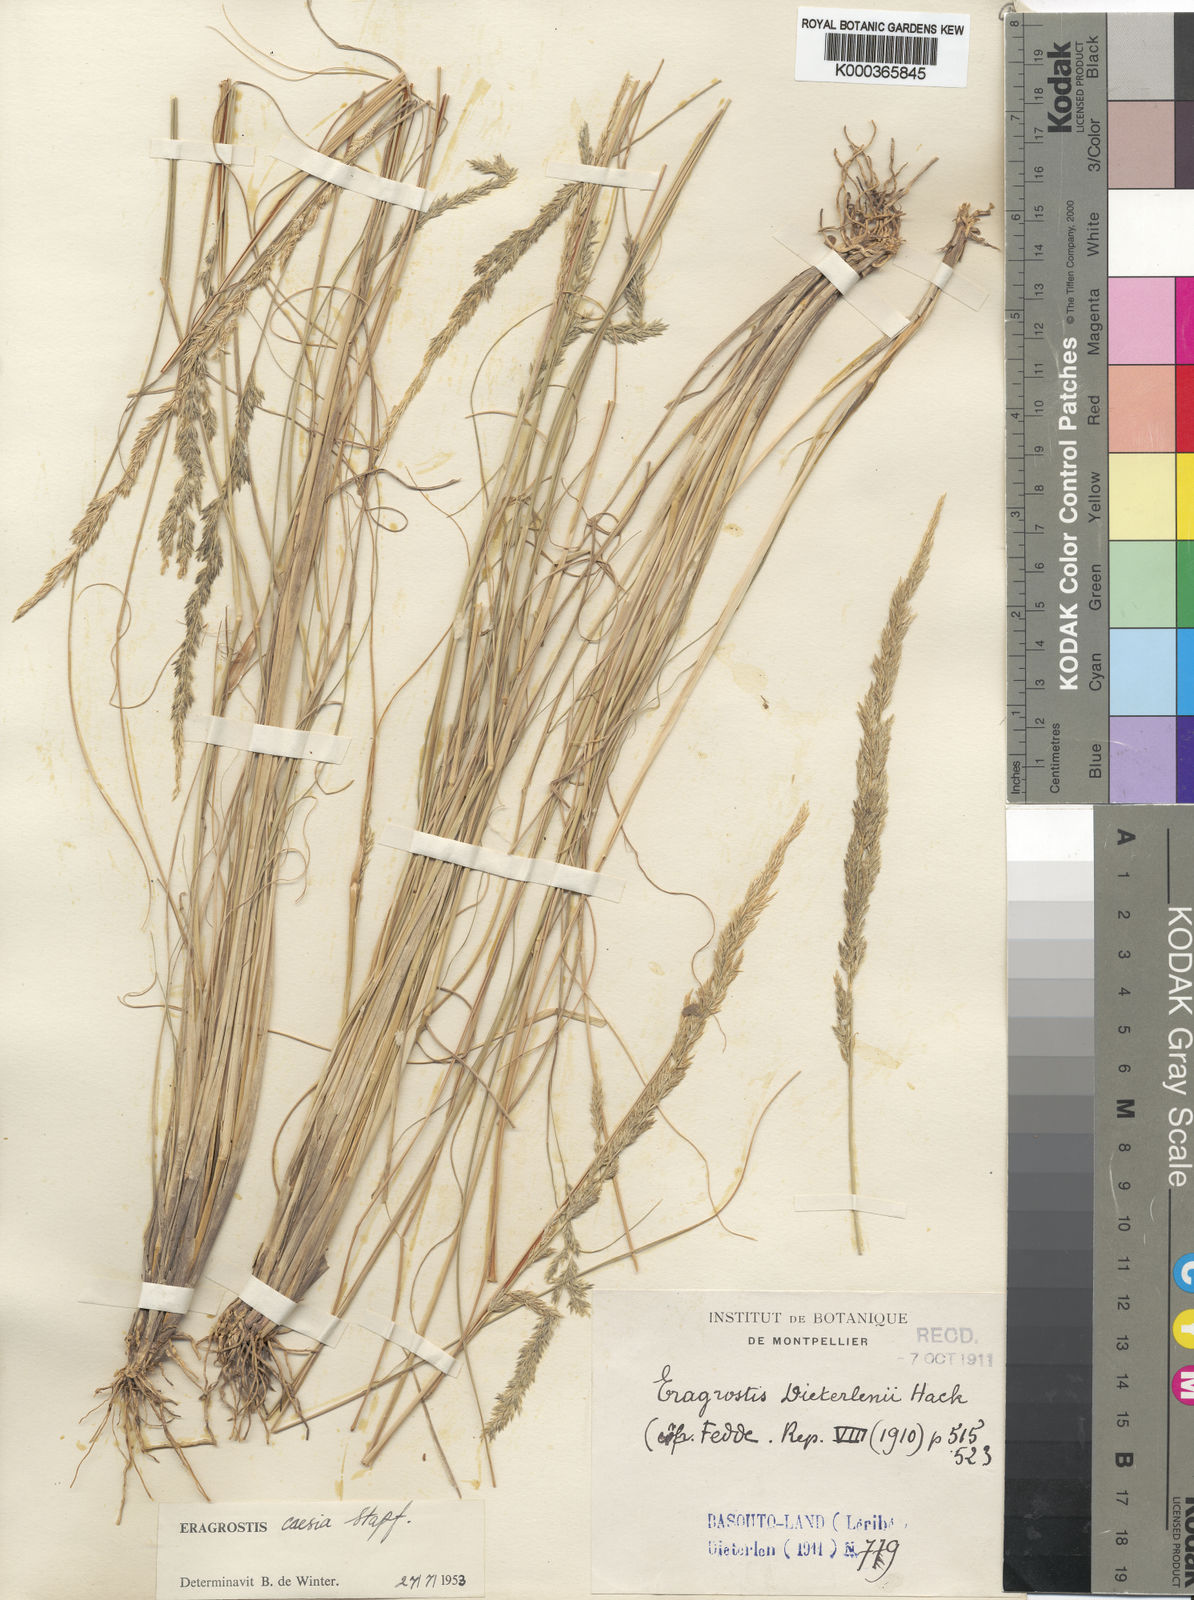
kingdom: Plantae
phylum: Tracheophyta
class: Liliopsida
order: Poales
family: Poaceae
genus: Eragrostis
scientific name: Eragrostis caesia
